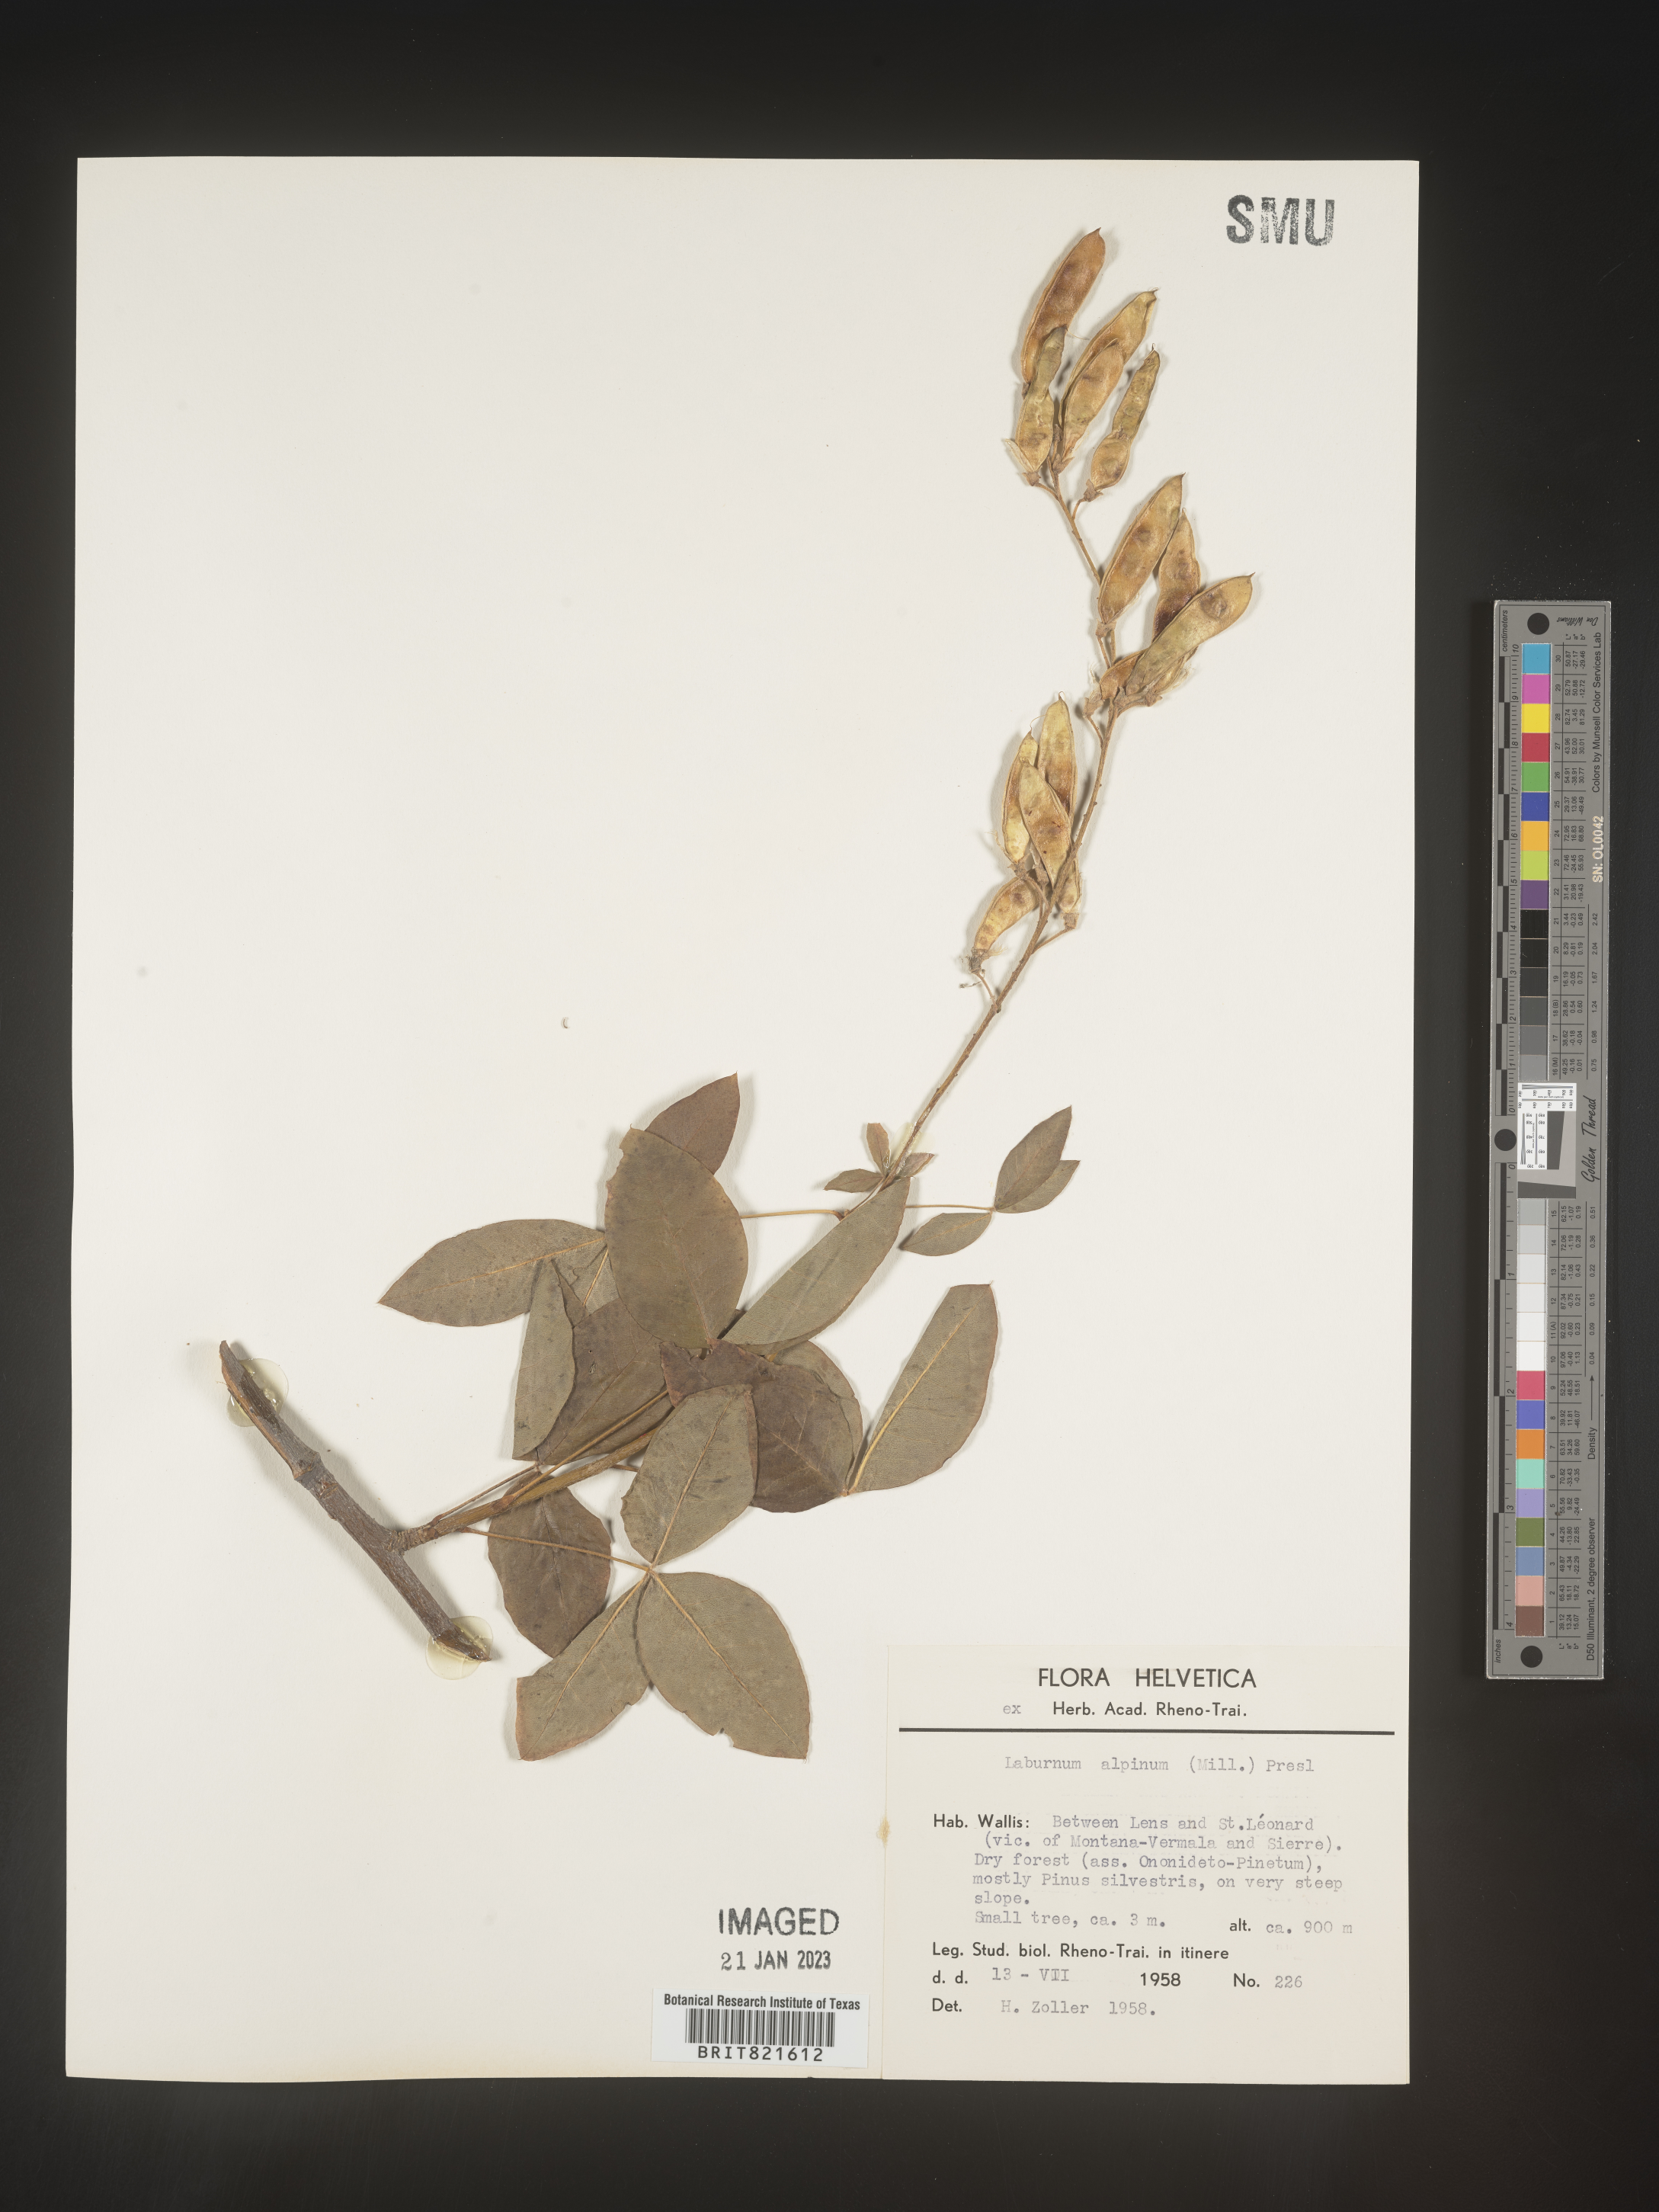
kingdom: Plantae
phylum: Tracheophyta
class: Magnoliopsida
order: Fabales
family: Fabaceae
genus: Laburnum
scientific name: Laburnum
